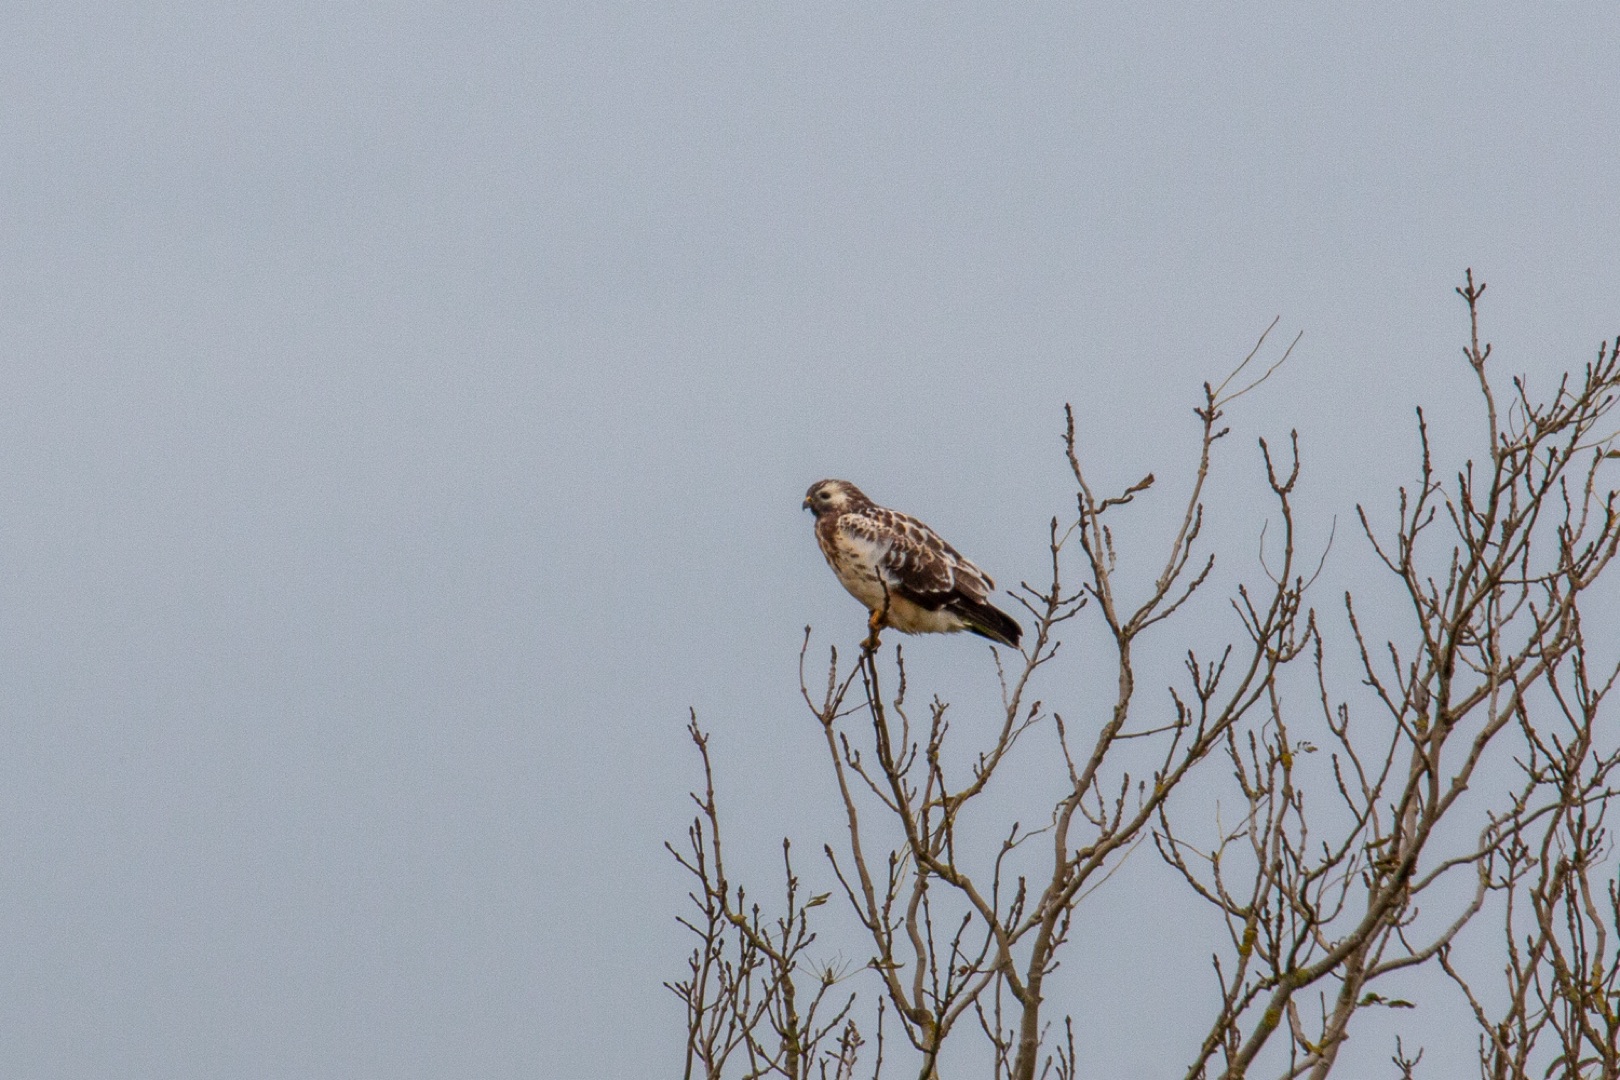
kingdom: Animalia
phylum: Chordata
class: Aves
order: Accipitriformes
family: Accipitridae
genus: Buteo
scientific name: Buteo buteo
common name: Musvåge
